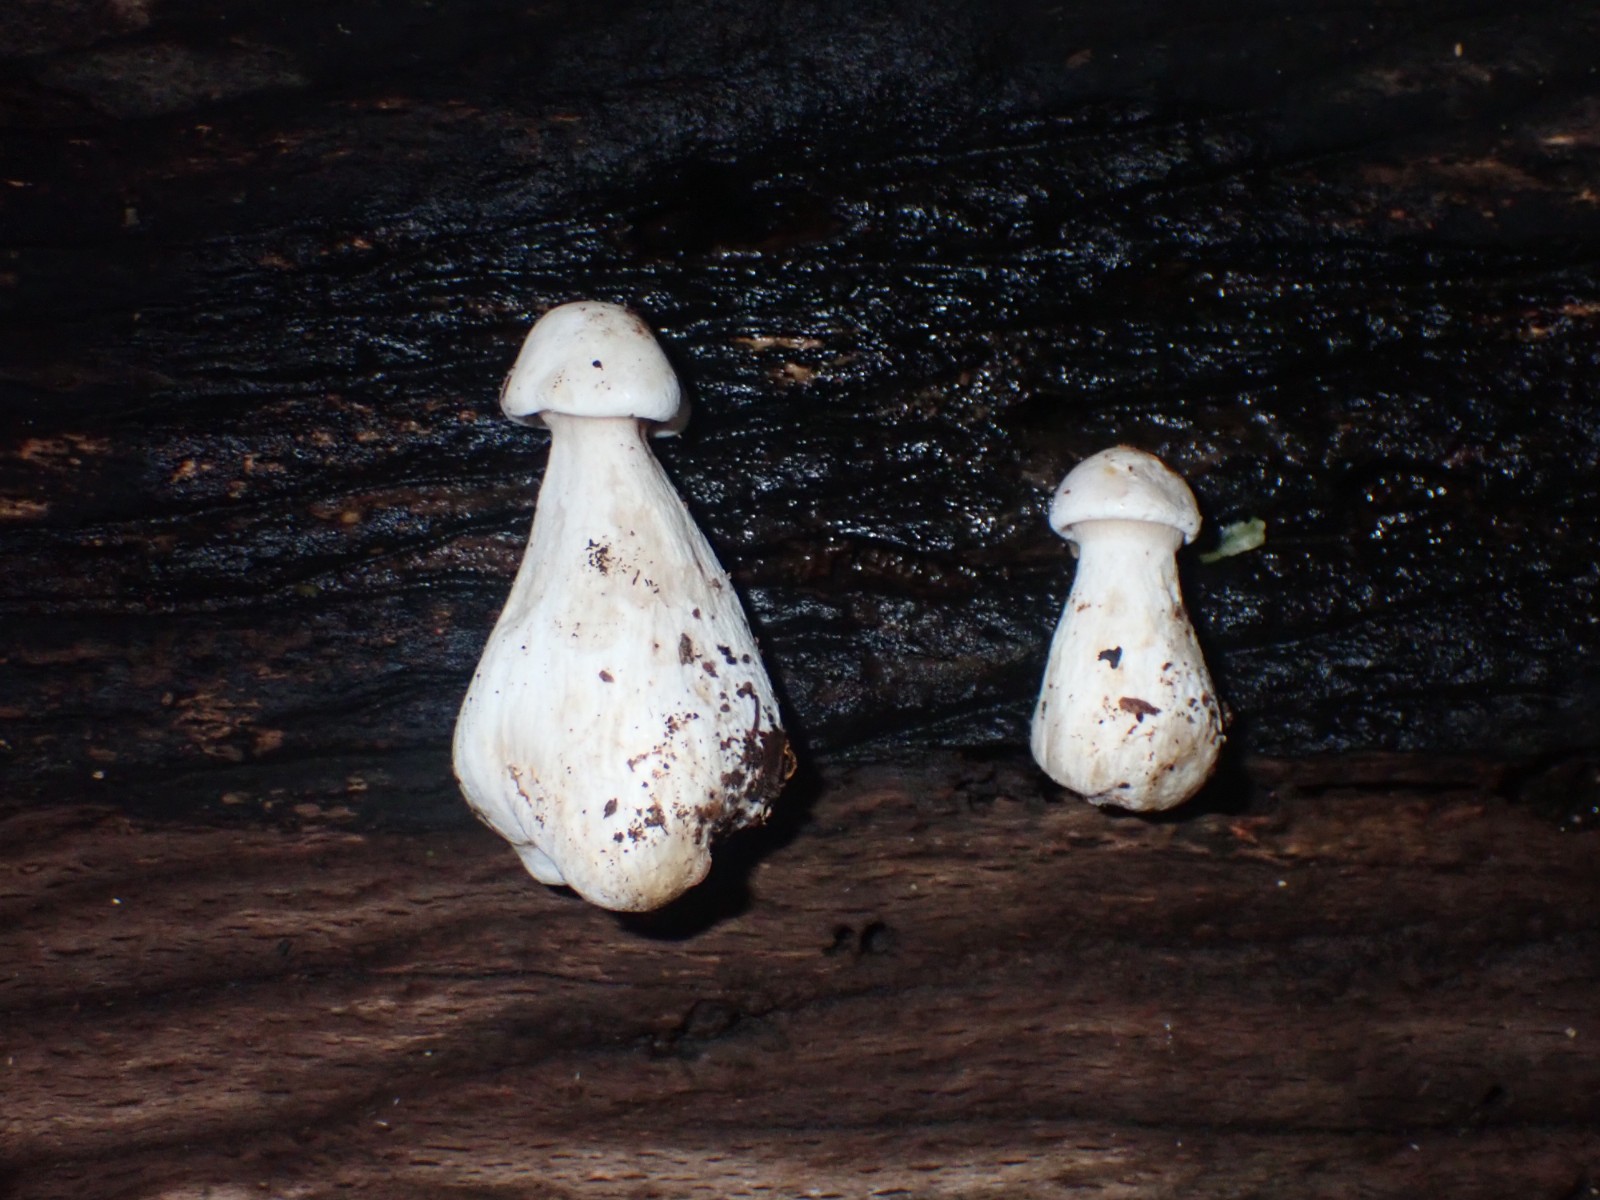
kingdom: Fungi
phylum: Basidiomycota
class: Agaricomycetes
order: Agaricales
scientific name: Agaricales
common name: champignonordenen
